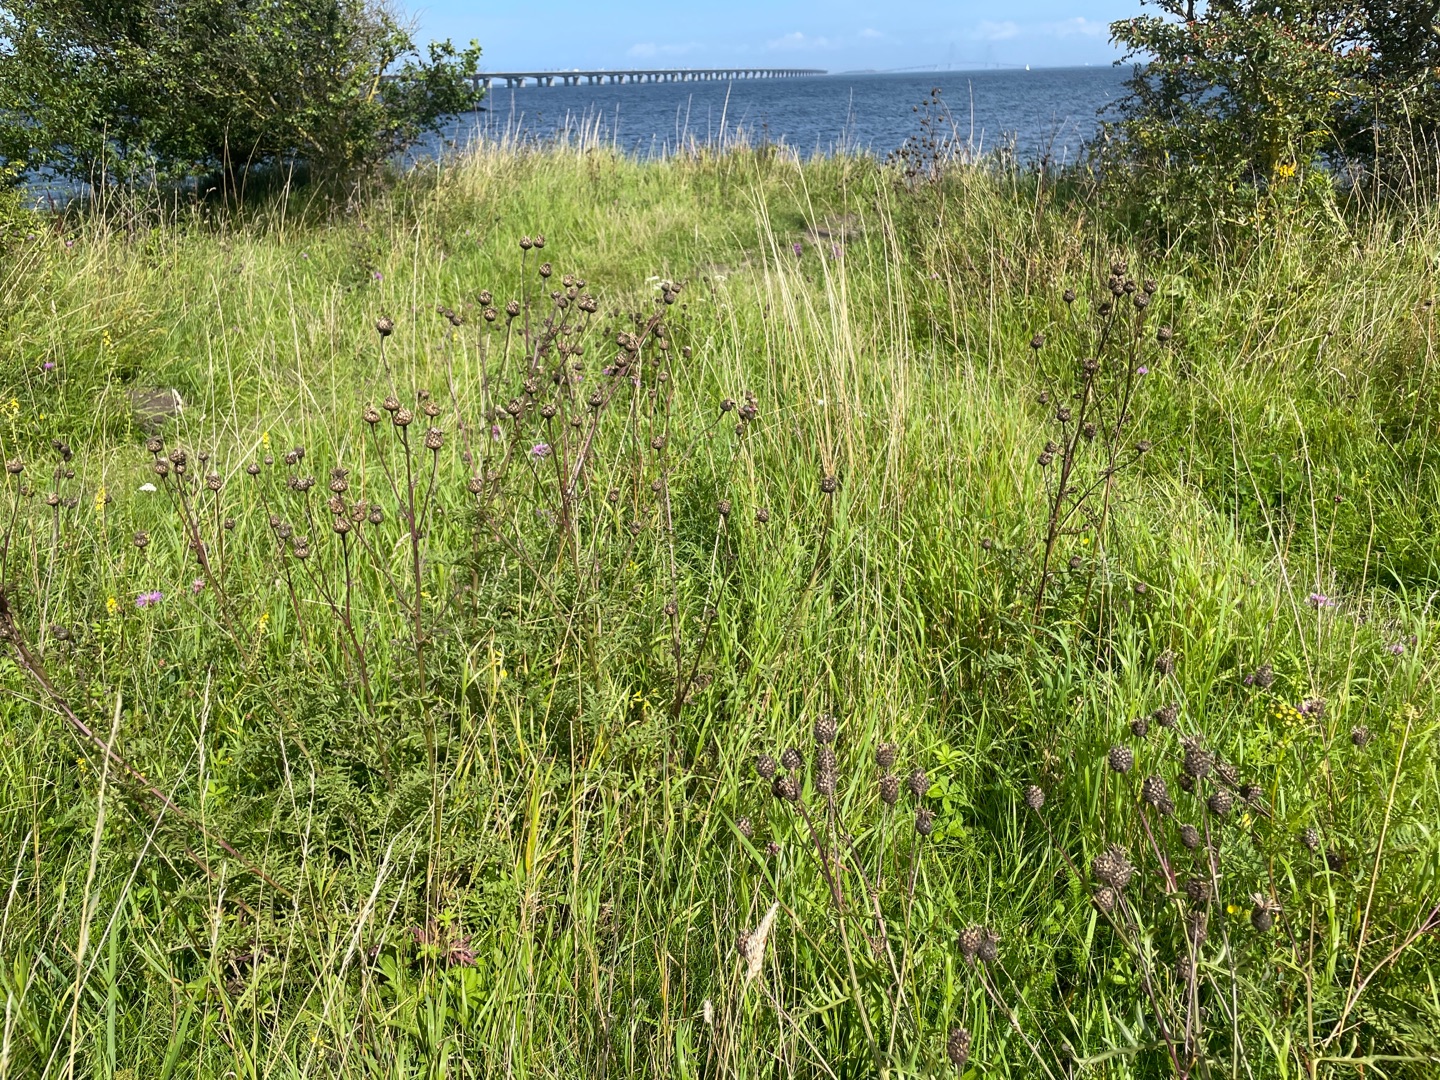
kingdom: Plantae
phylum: Tracheophyta
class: Magnoliopsida
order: Asterales
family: Asteraceae
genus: Centaurea
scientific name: Centaurea scabiosa
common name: Stor knopurt
